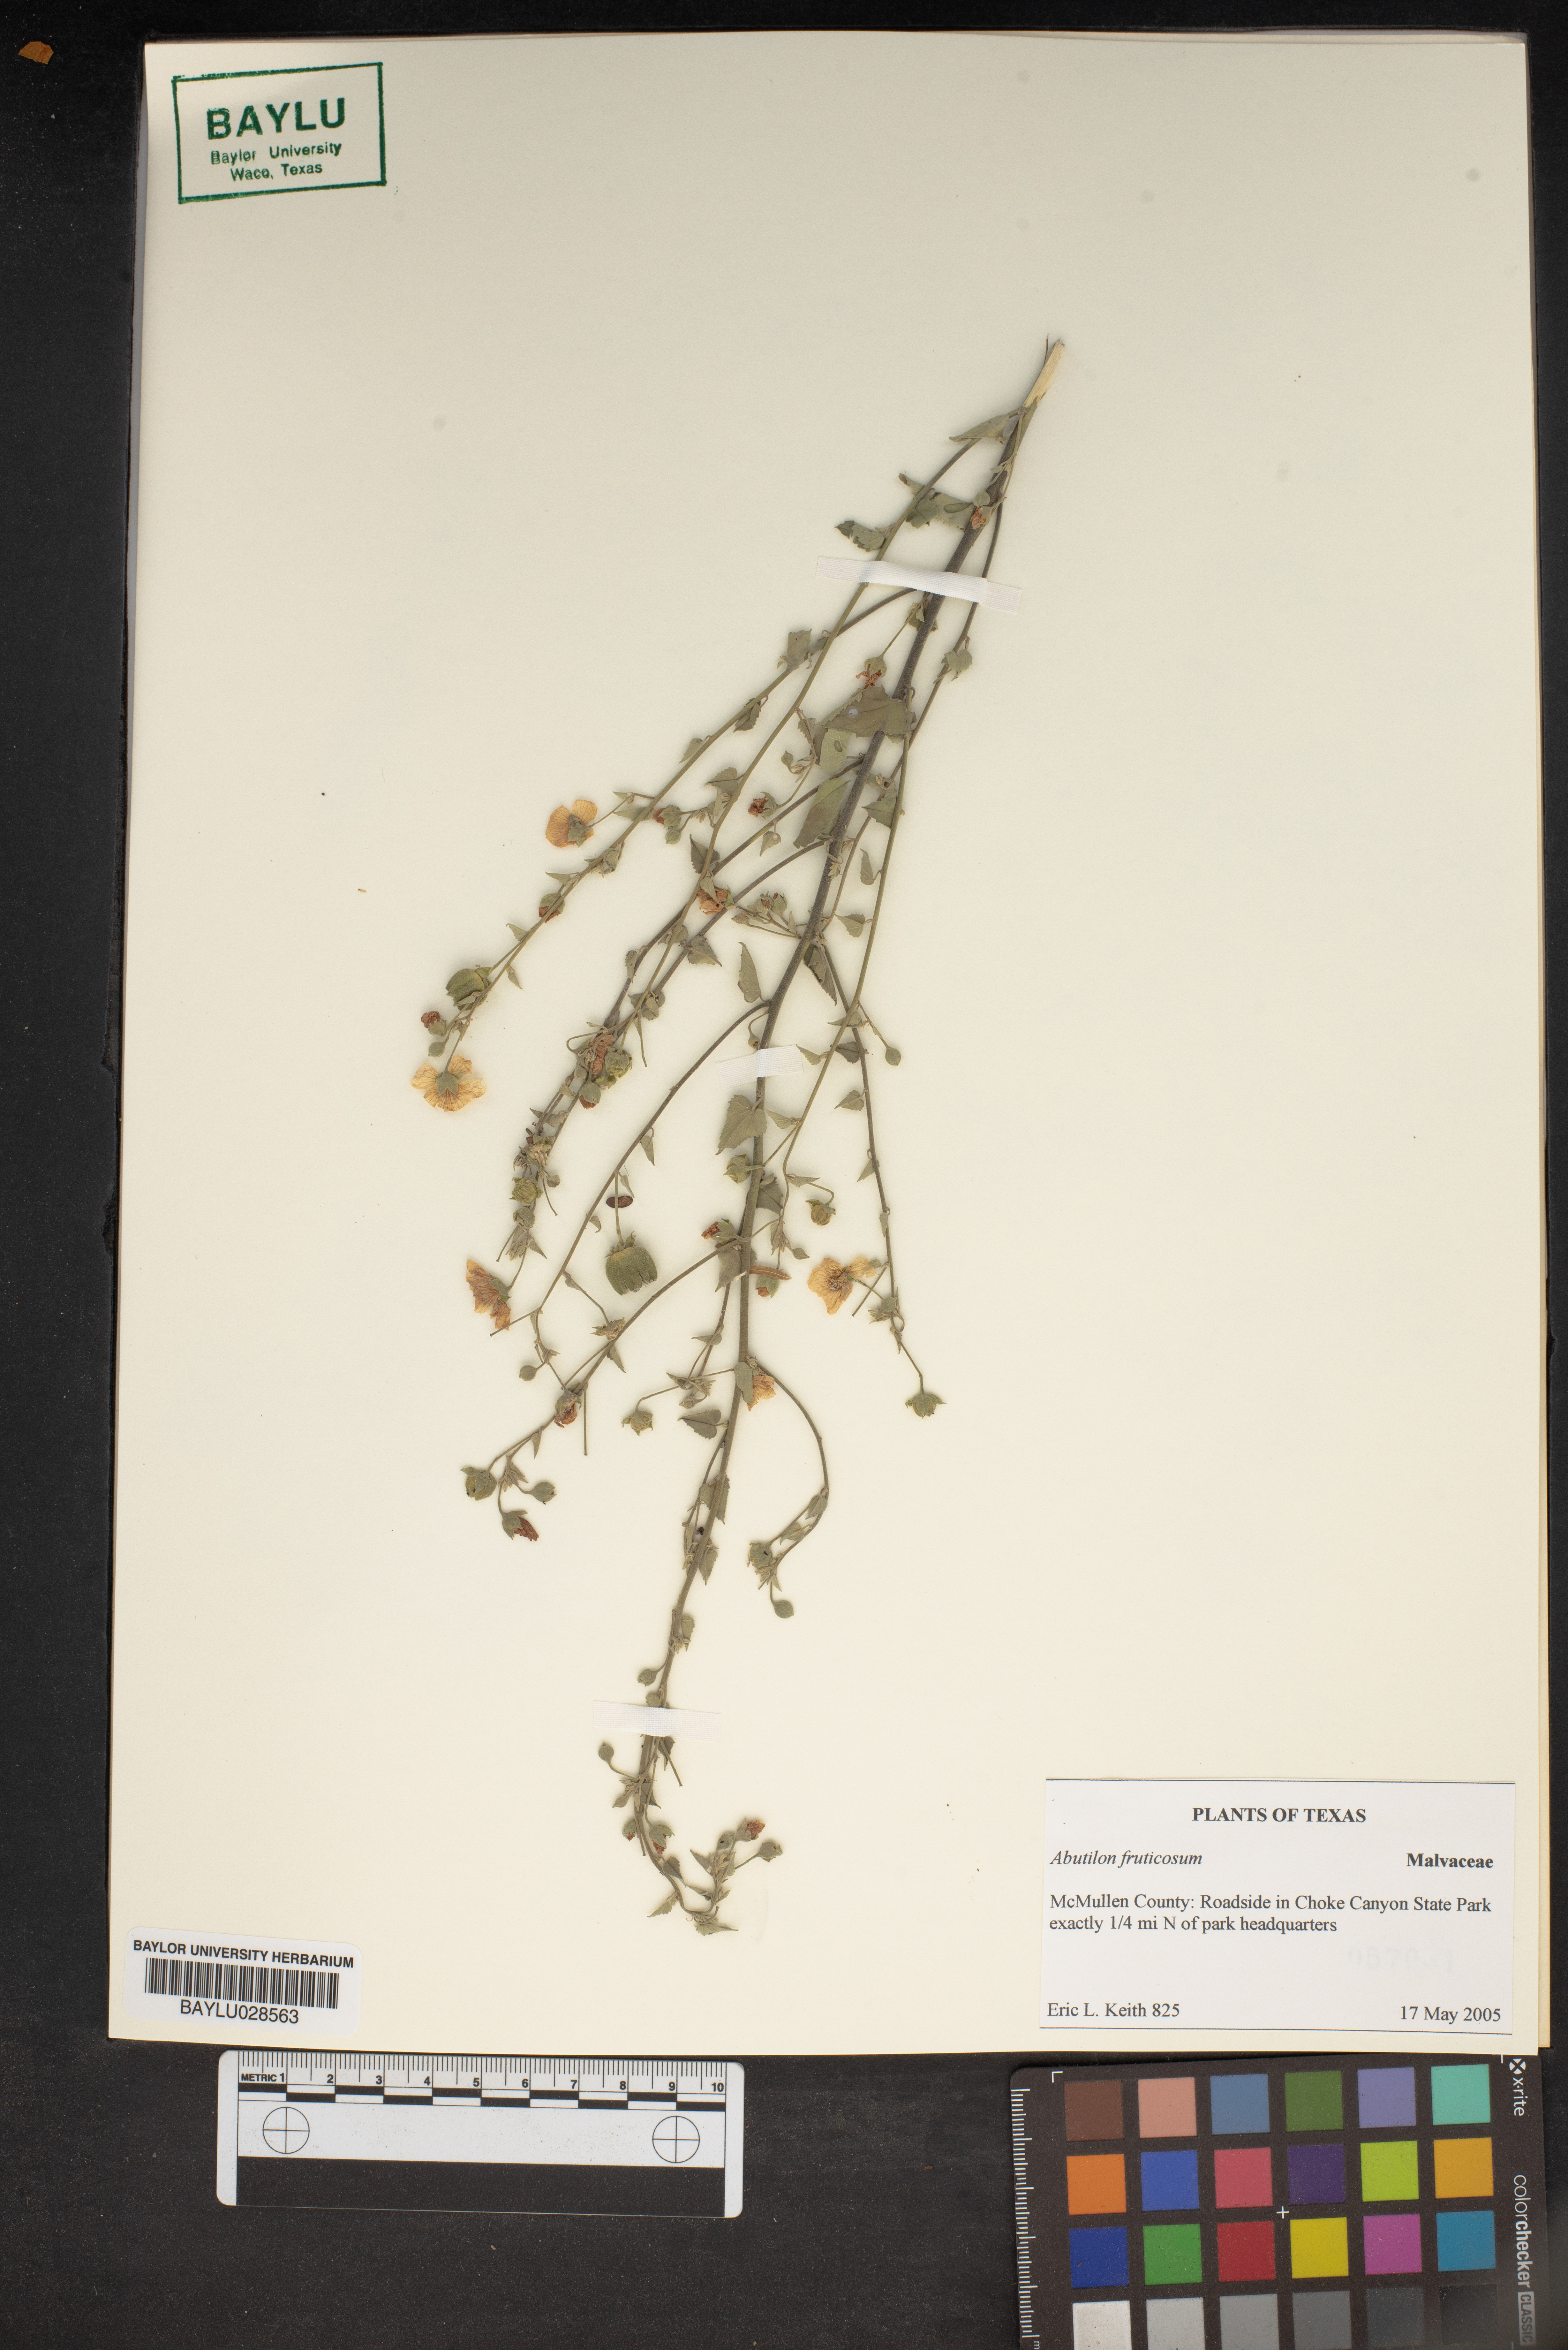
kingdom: Plantae
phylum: Tracheophyta
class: Magnoliopsida
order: Malvales
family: Malvaceae
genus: Abutilon
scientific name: Abutilon fruticosum
